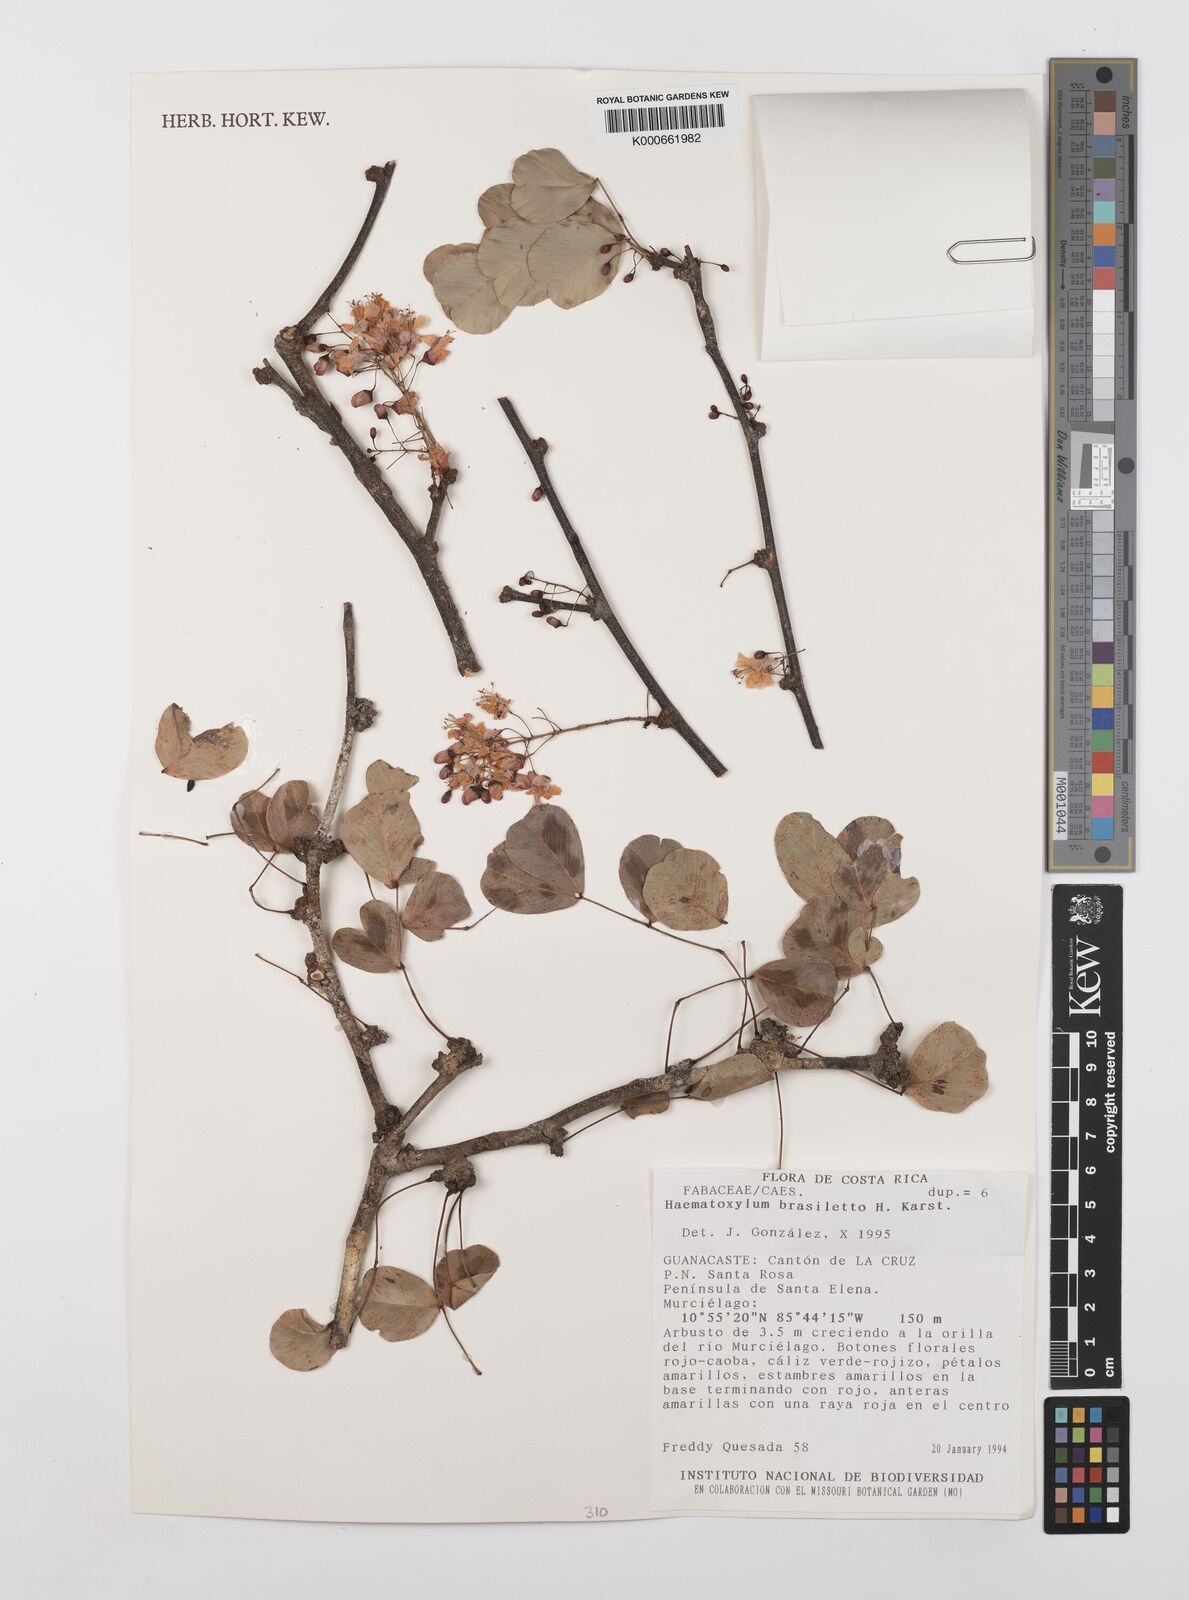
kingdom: Plantae
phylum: Tracheophyta
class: Magnoliopsida
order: Fabales
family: Fabaceae
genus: Haematoxylum
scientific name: Haematoxylum brasiletto
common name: Peachwood
